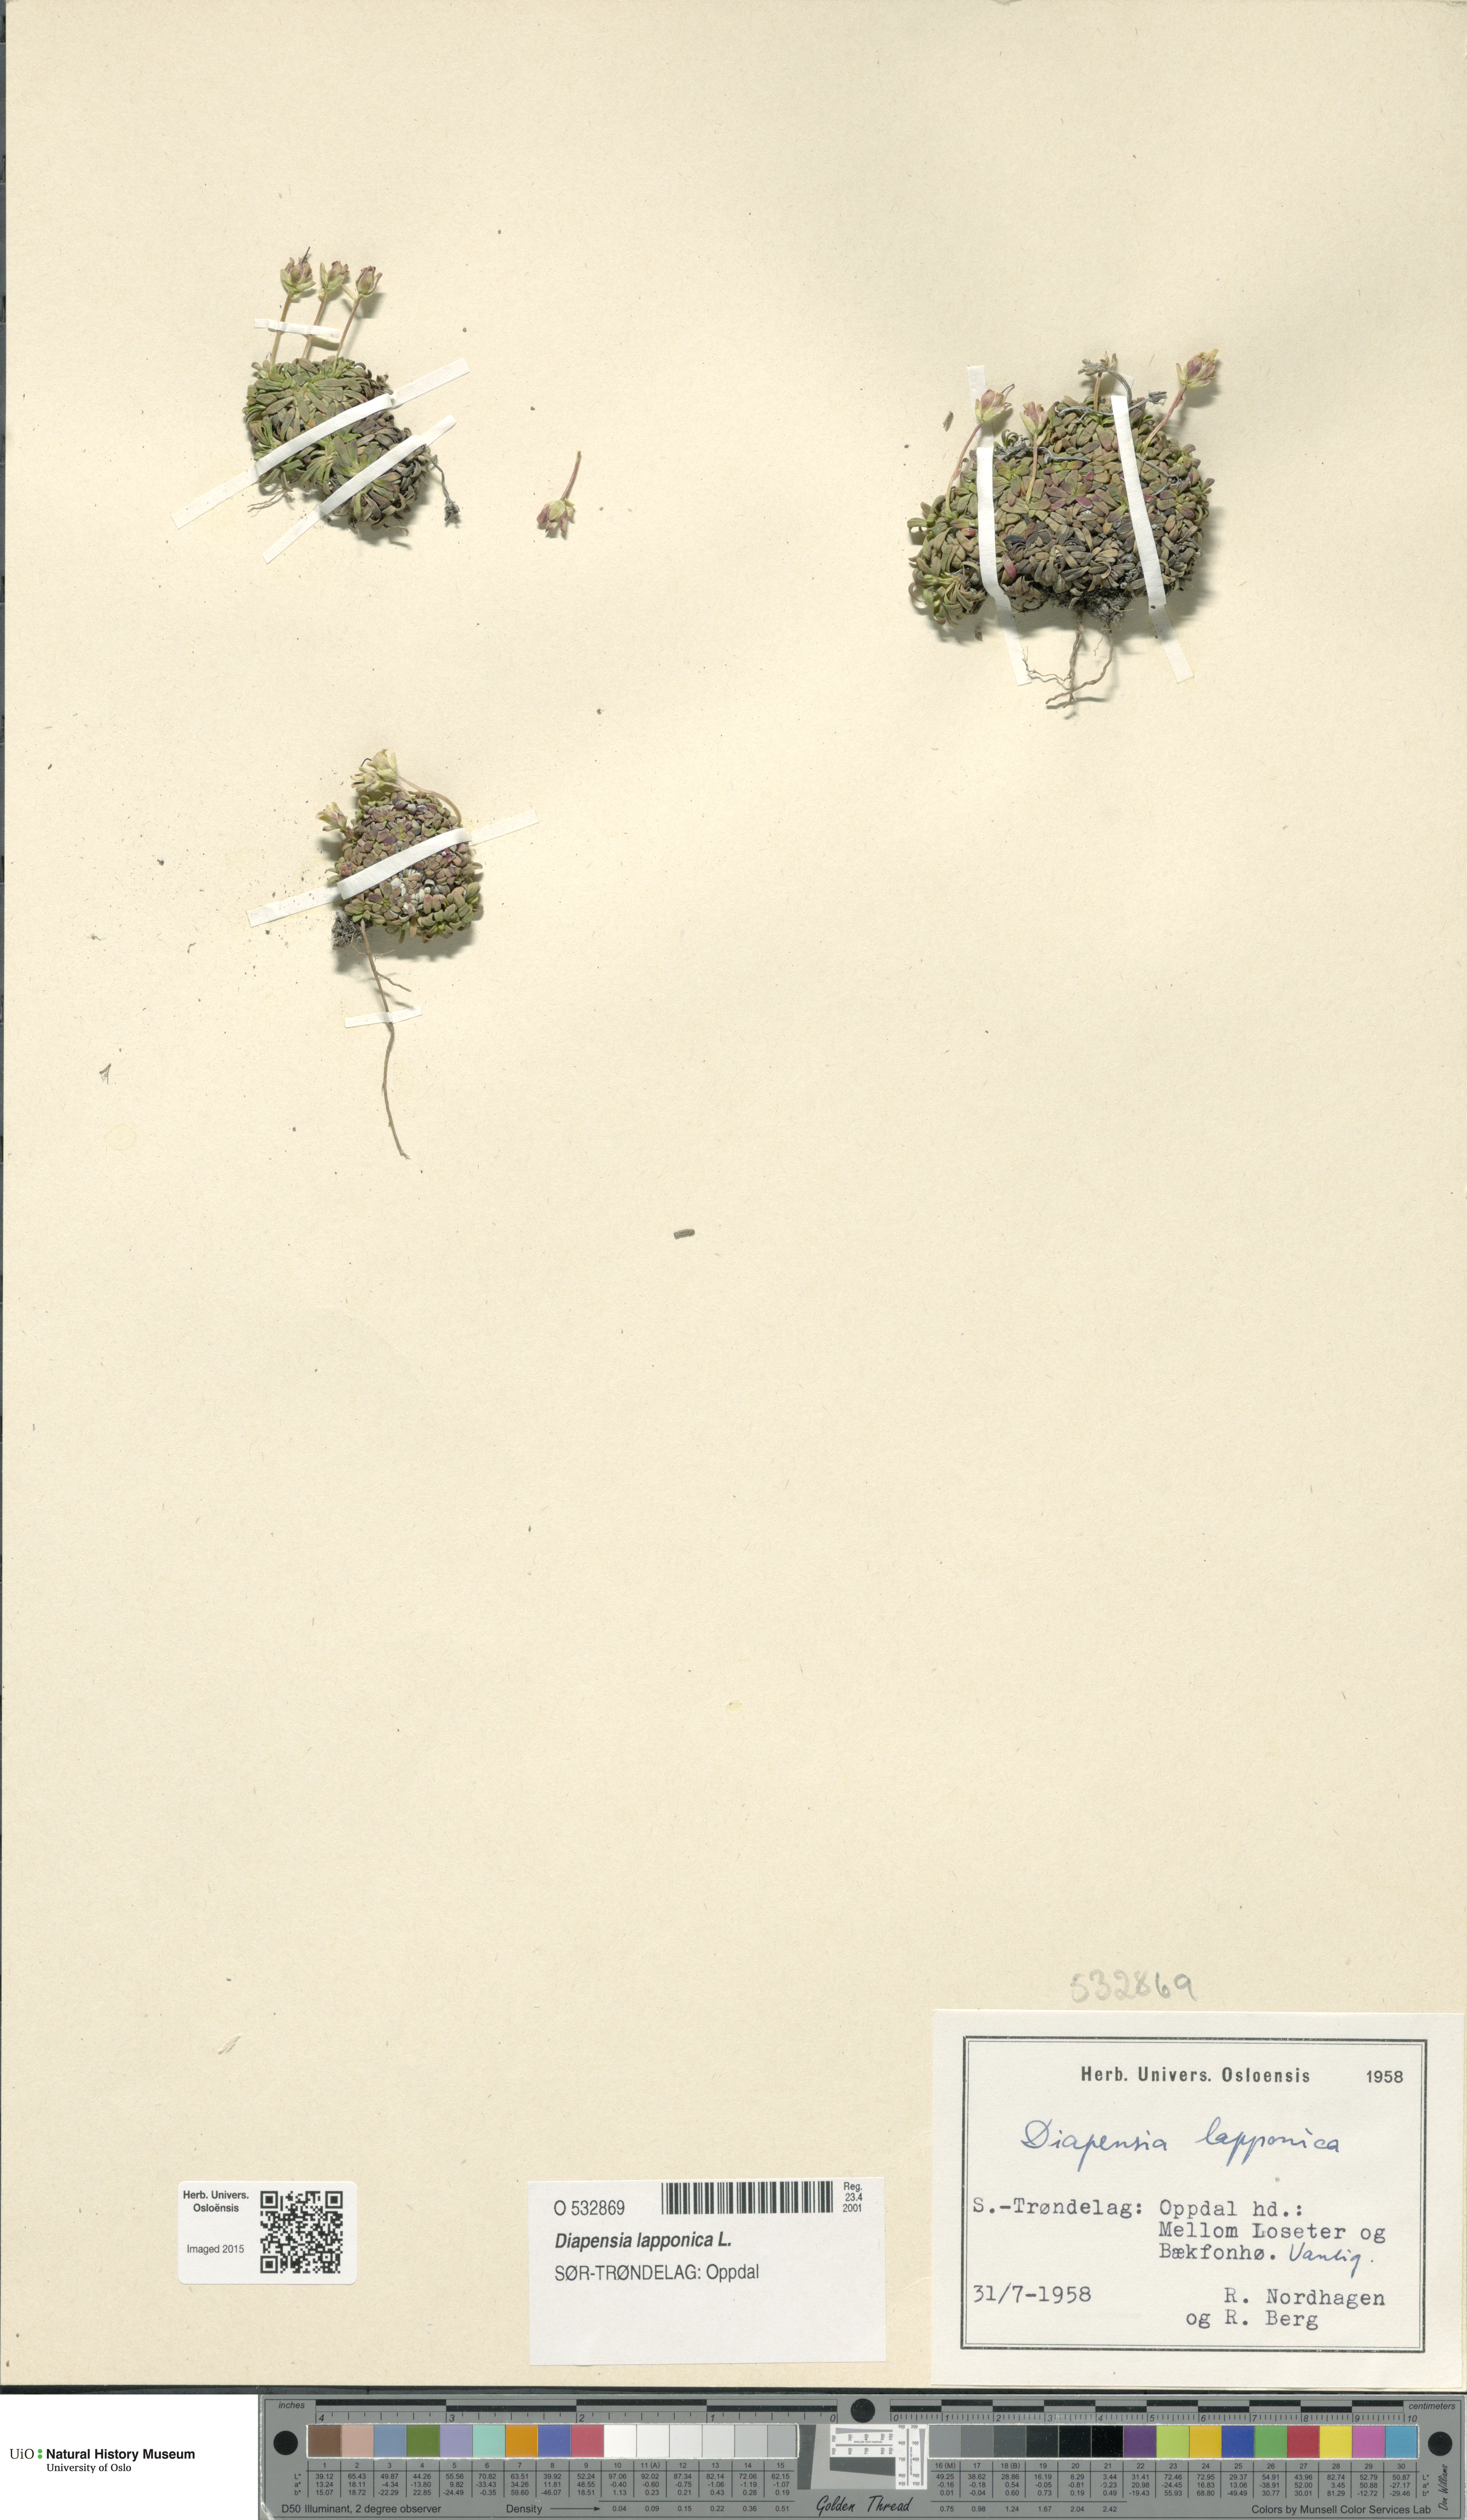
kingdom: Plantae
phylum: Tracheophyta
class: Magnoliopsida
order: Ericales
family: Diapensiaceae
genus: Diapensia
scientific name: Diapensia lapponica
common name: Diapensia
